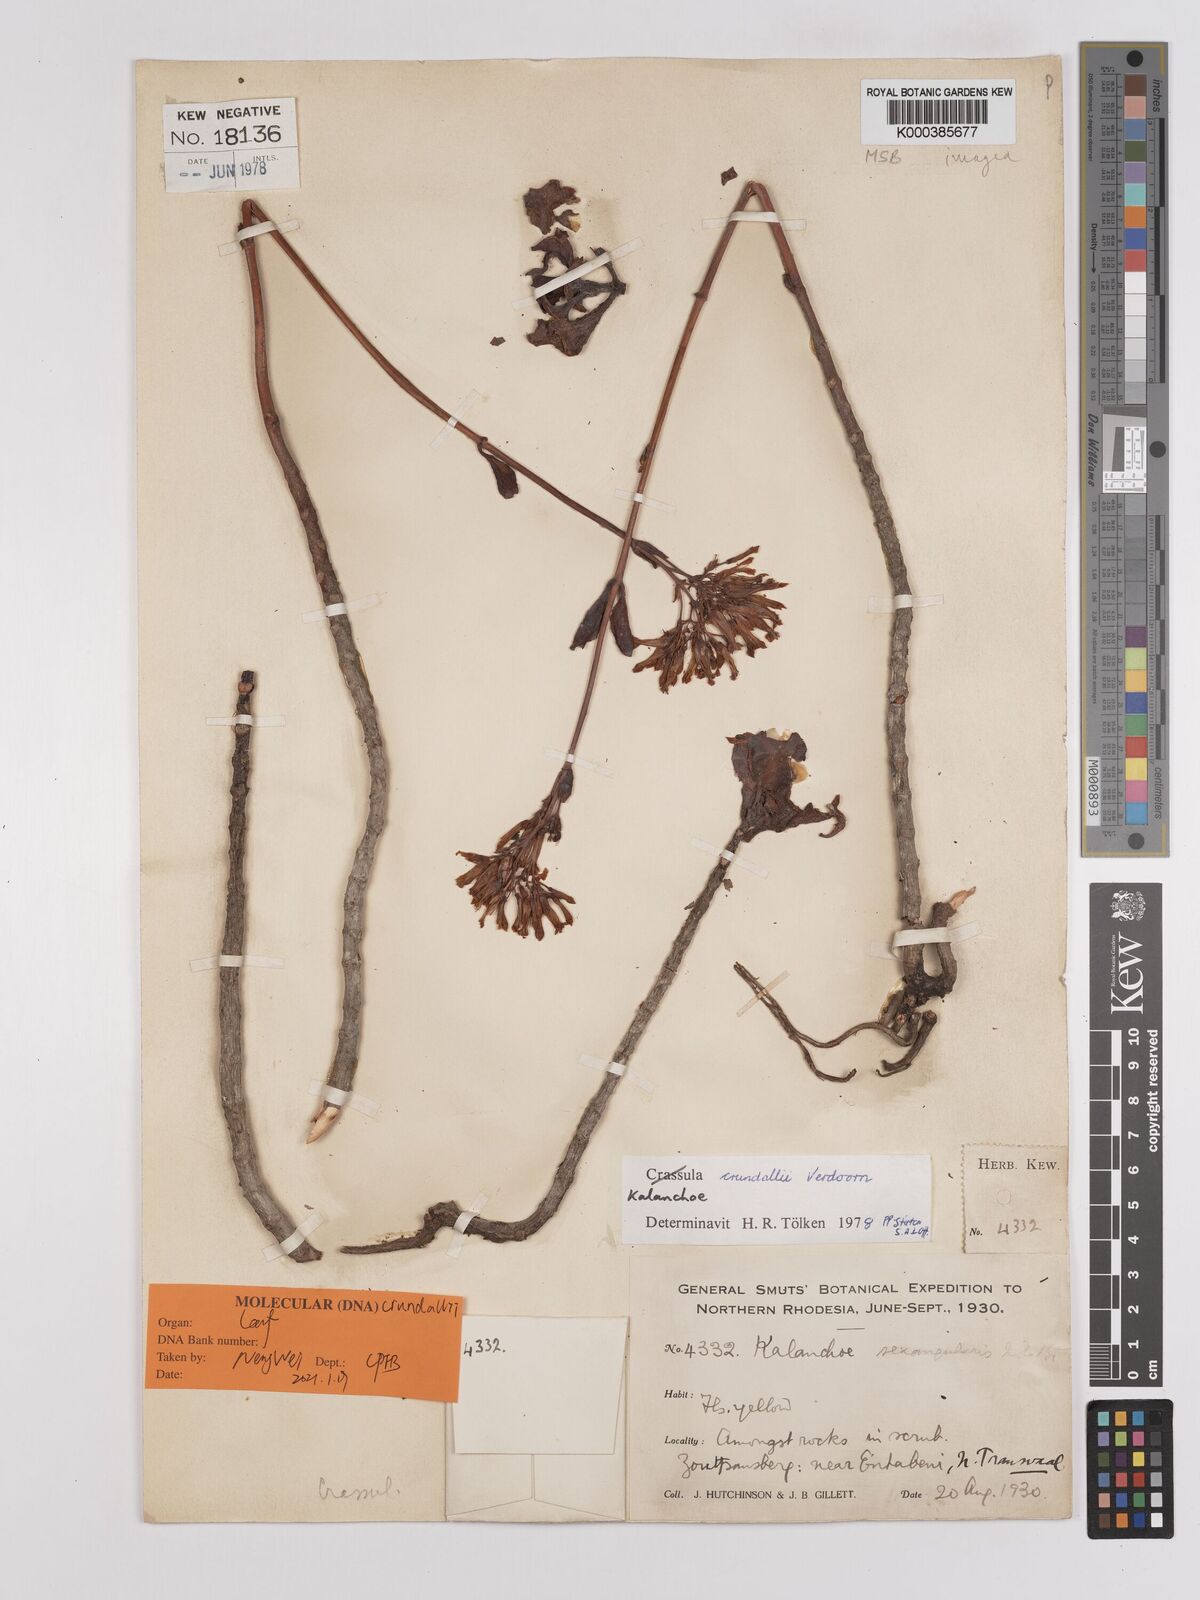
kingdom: Plantae
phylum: Tracheophyta
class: Magnoliopsida
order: Saxifragales
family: Crassulaceae
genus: Kalanchoe
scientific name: Kalanchoe crundallii
